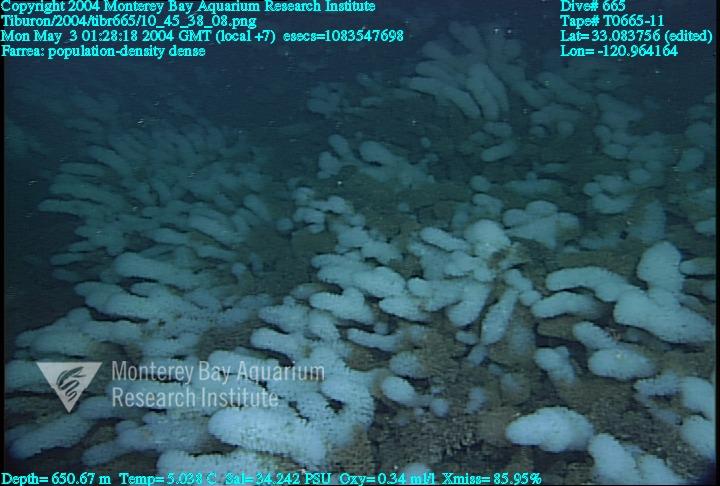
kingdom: Animalia
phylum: Porifera
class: Hexactinellida
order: Sceptrulophora
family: Farreidae
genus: Farrea
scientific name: Farrea
